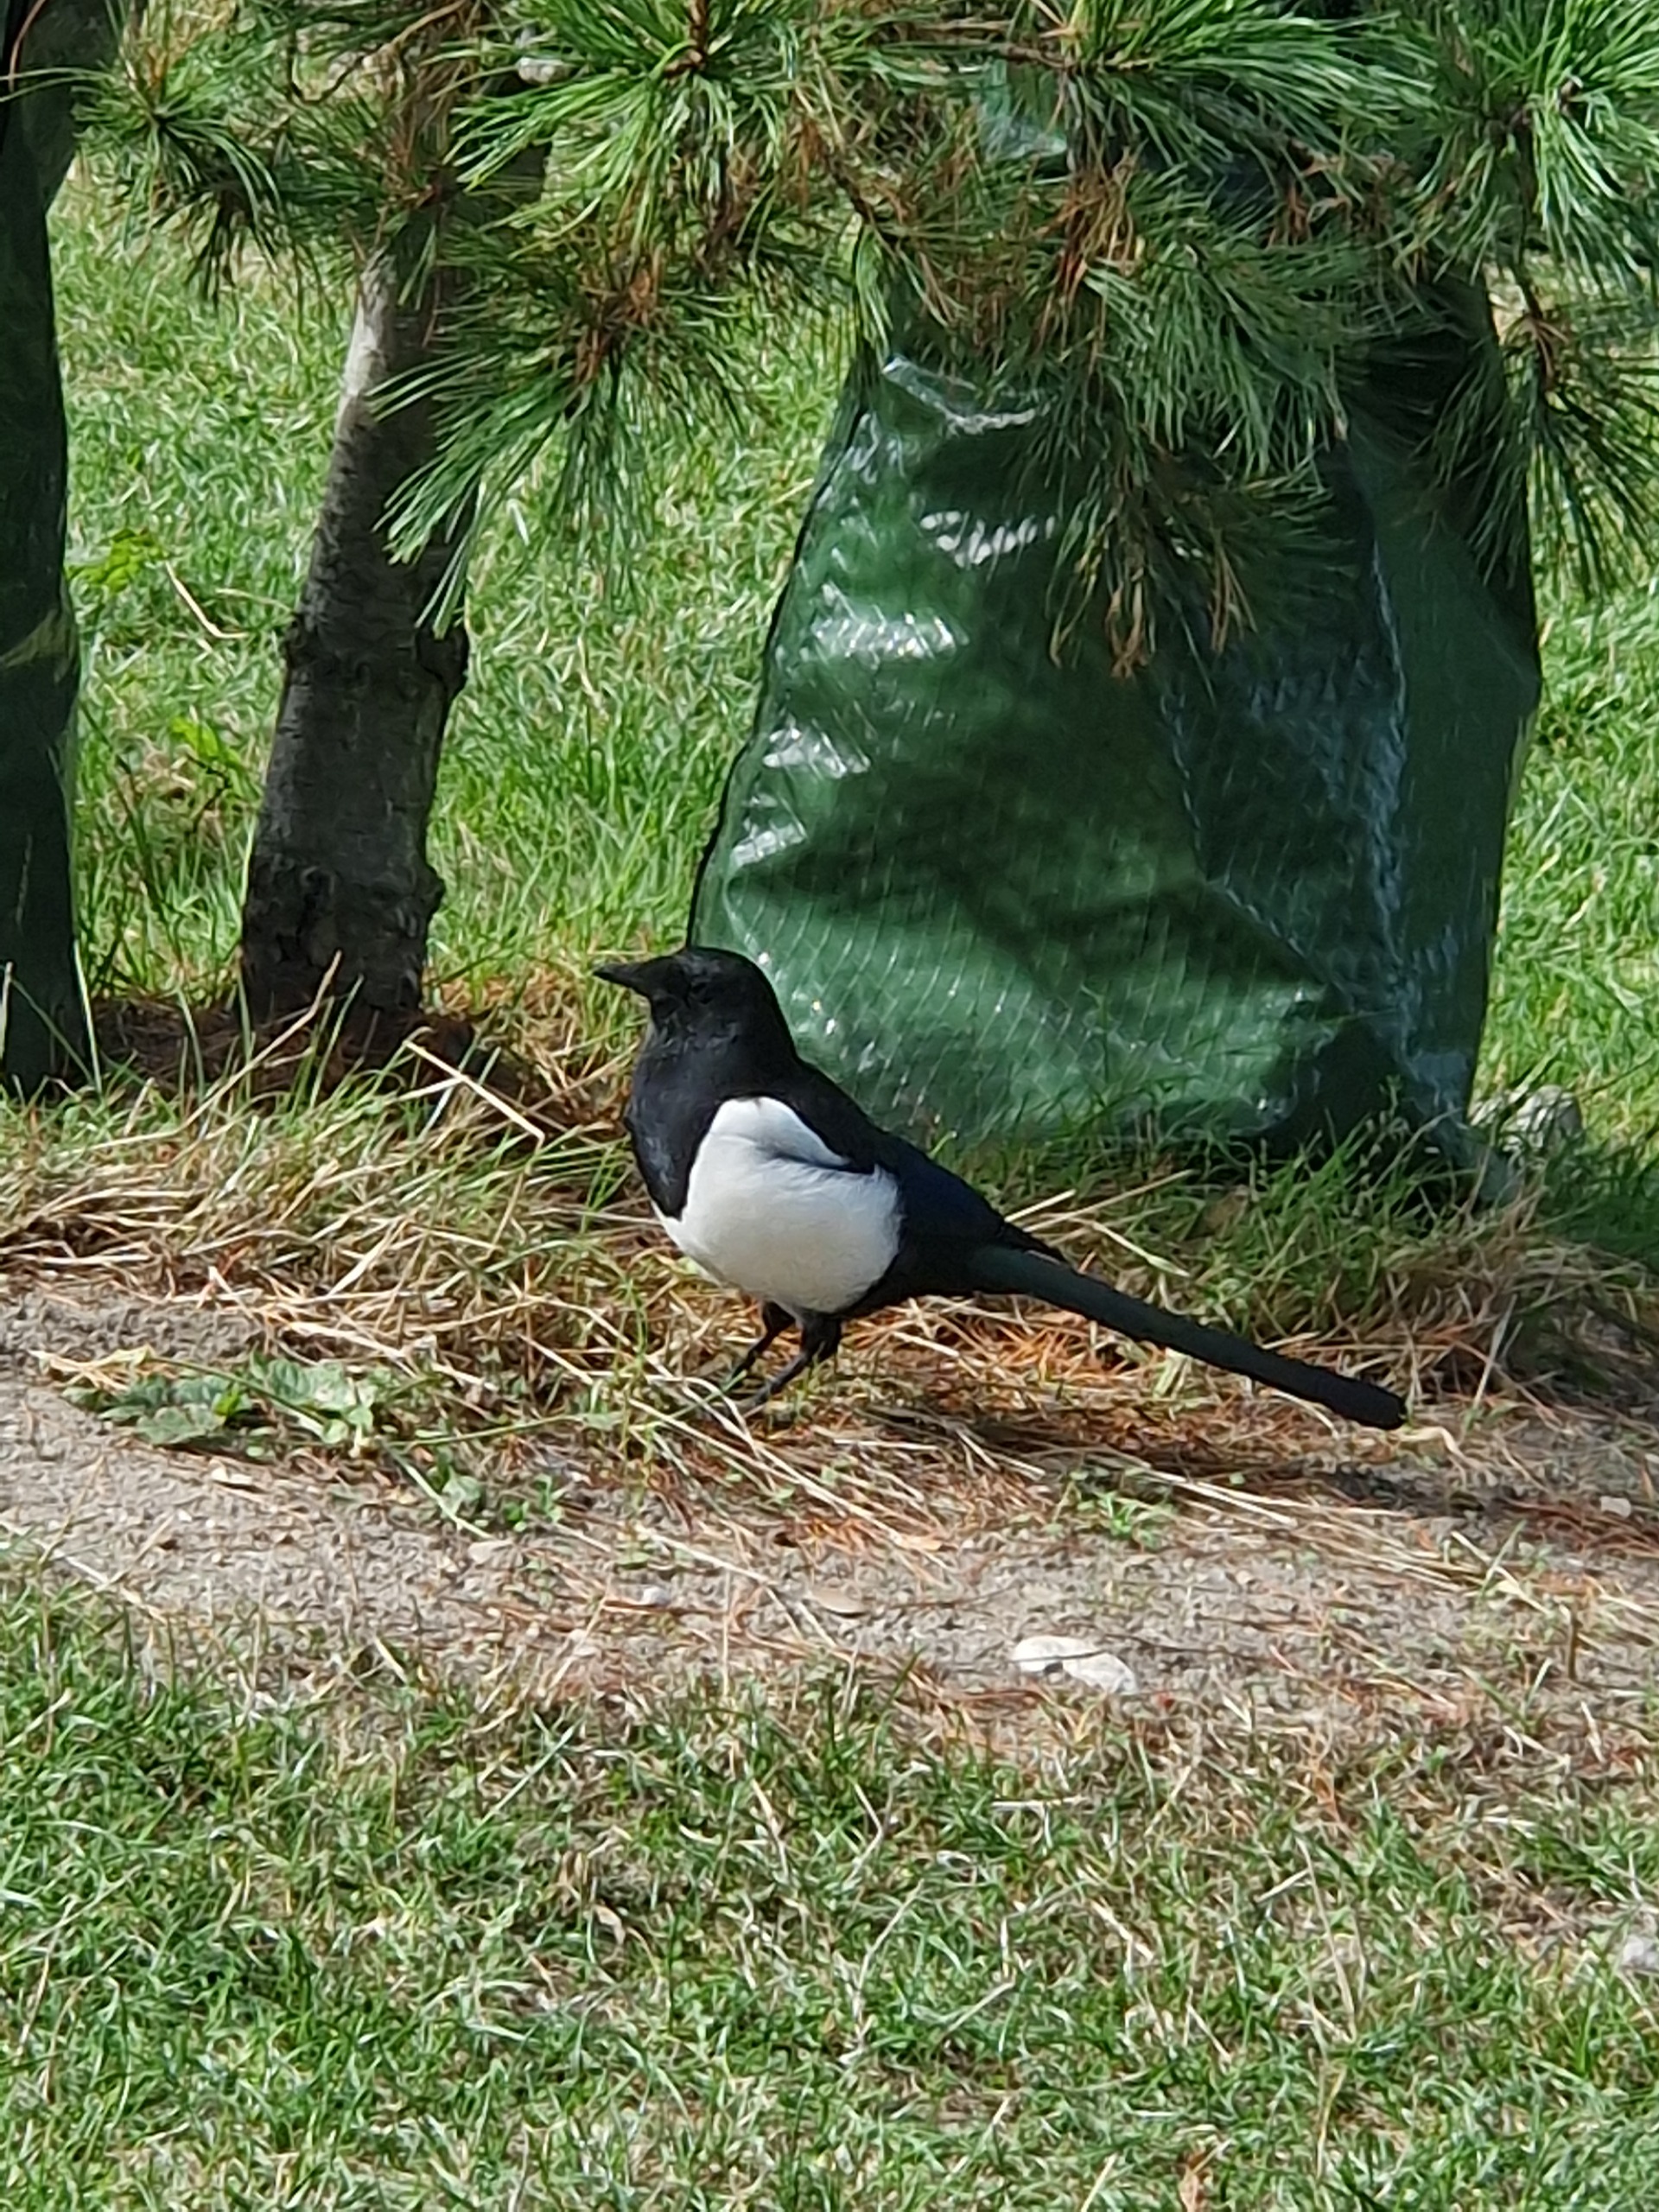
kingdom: Animalia
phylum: Chordata
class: Aves
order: Passeriformes
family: Corvidae
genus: Pica
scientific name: Pica pica
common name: Husskade
